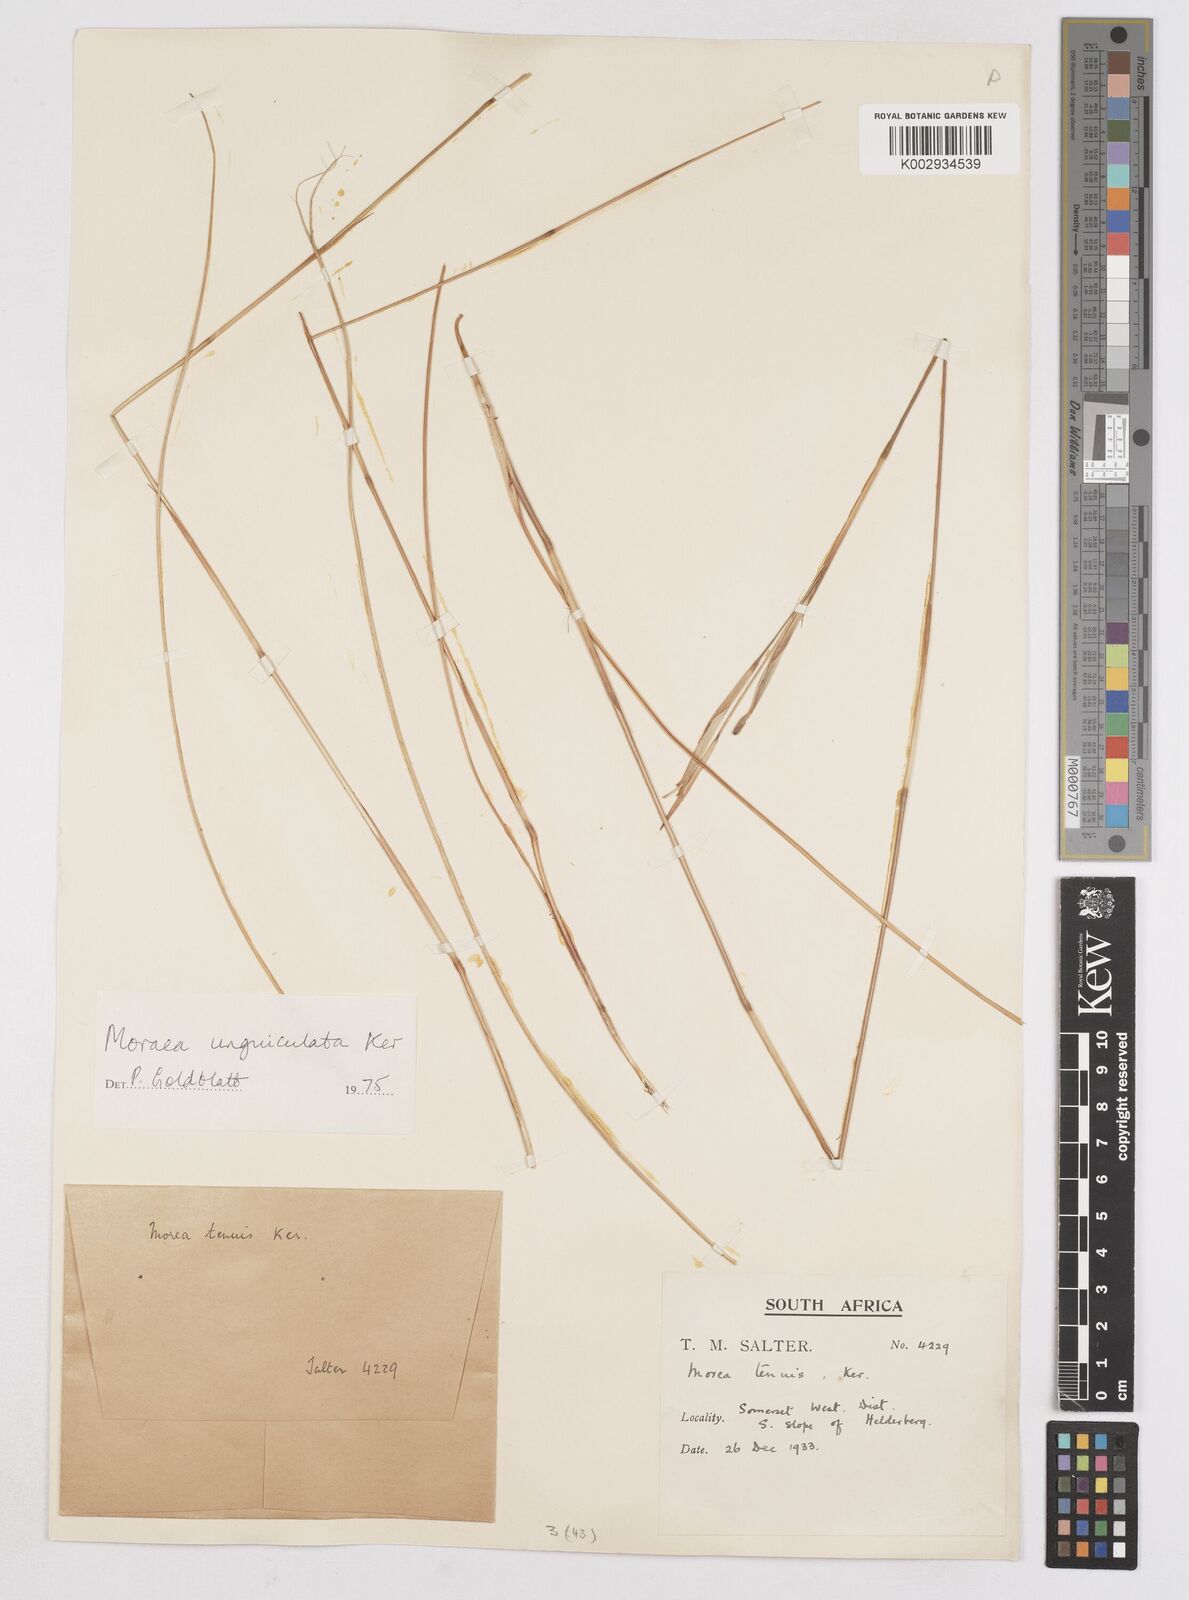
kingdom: Plantae
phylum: Tracheophyta
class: Liliopsida
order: Asparagales
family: Iridaceae
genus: Moraea
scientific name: Moraea unguiculata
